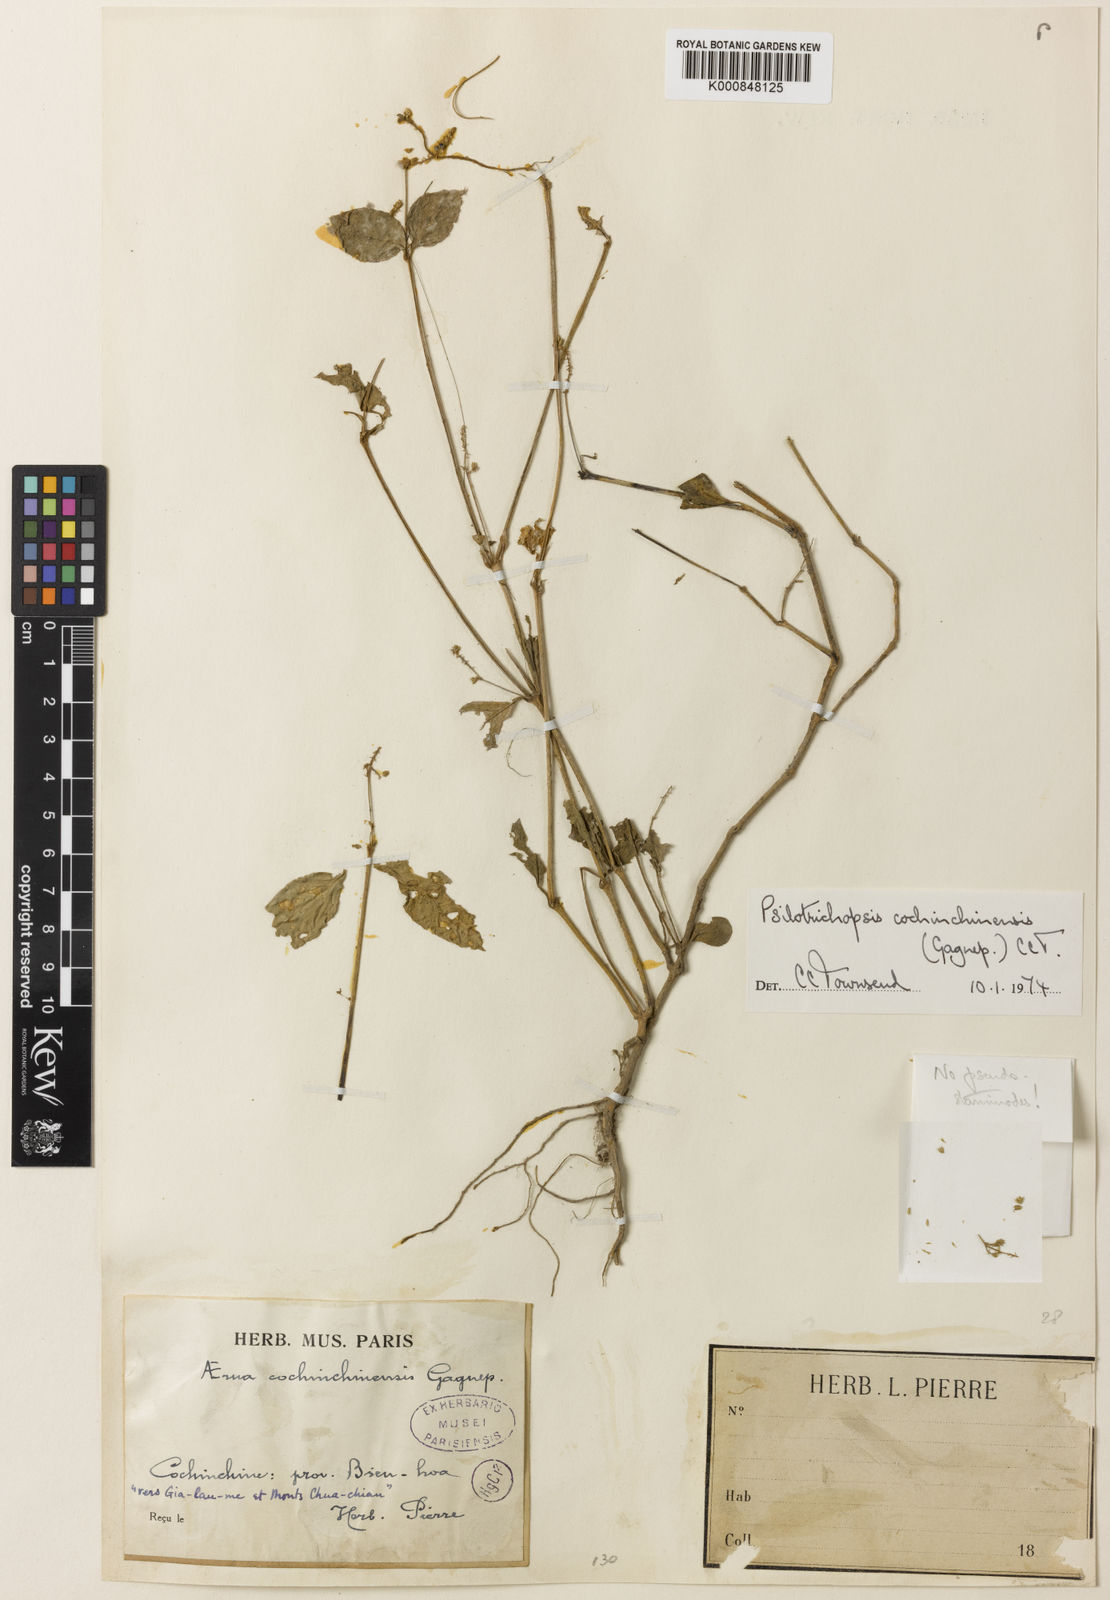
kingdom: Plantae
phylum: Tracheophyta
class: Magnoliopsida
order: Caryophyllales
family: Amaranthaceae
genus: Psilotrichopsis
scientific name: Psilotrichopsis curtisii
